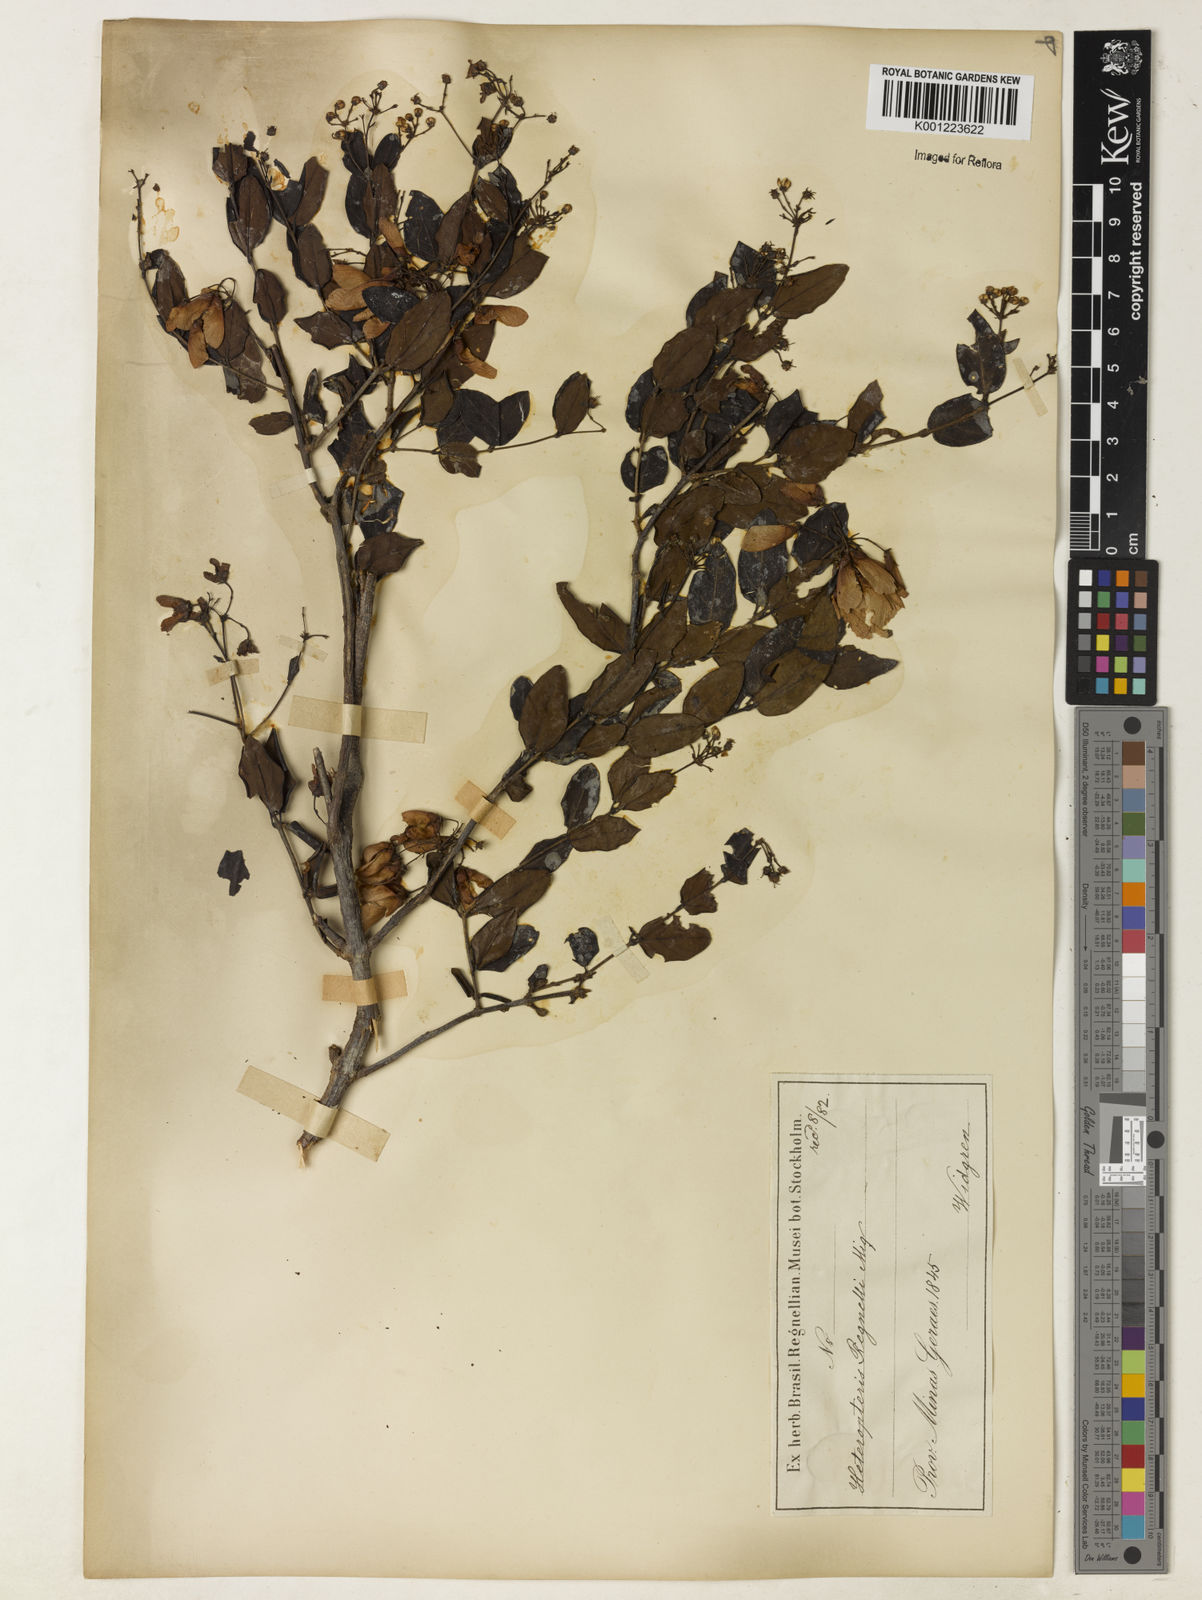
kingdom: Plantae
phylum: Tracheophyta
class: Magnoliopsida
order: Malpighiales
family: Malpighiaceae
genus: Heteropterys
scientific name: Heteropterys umbellata
